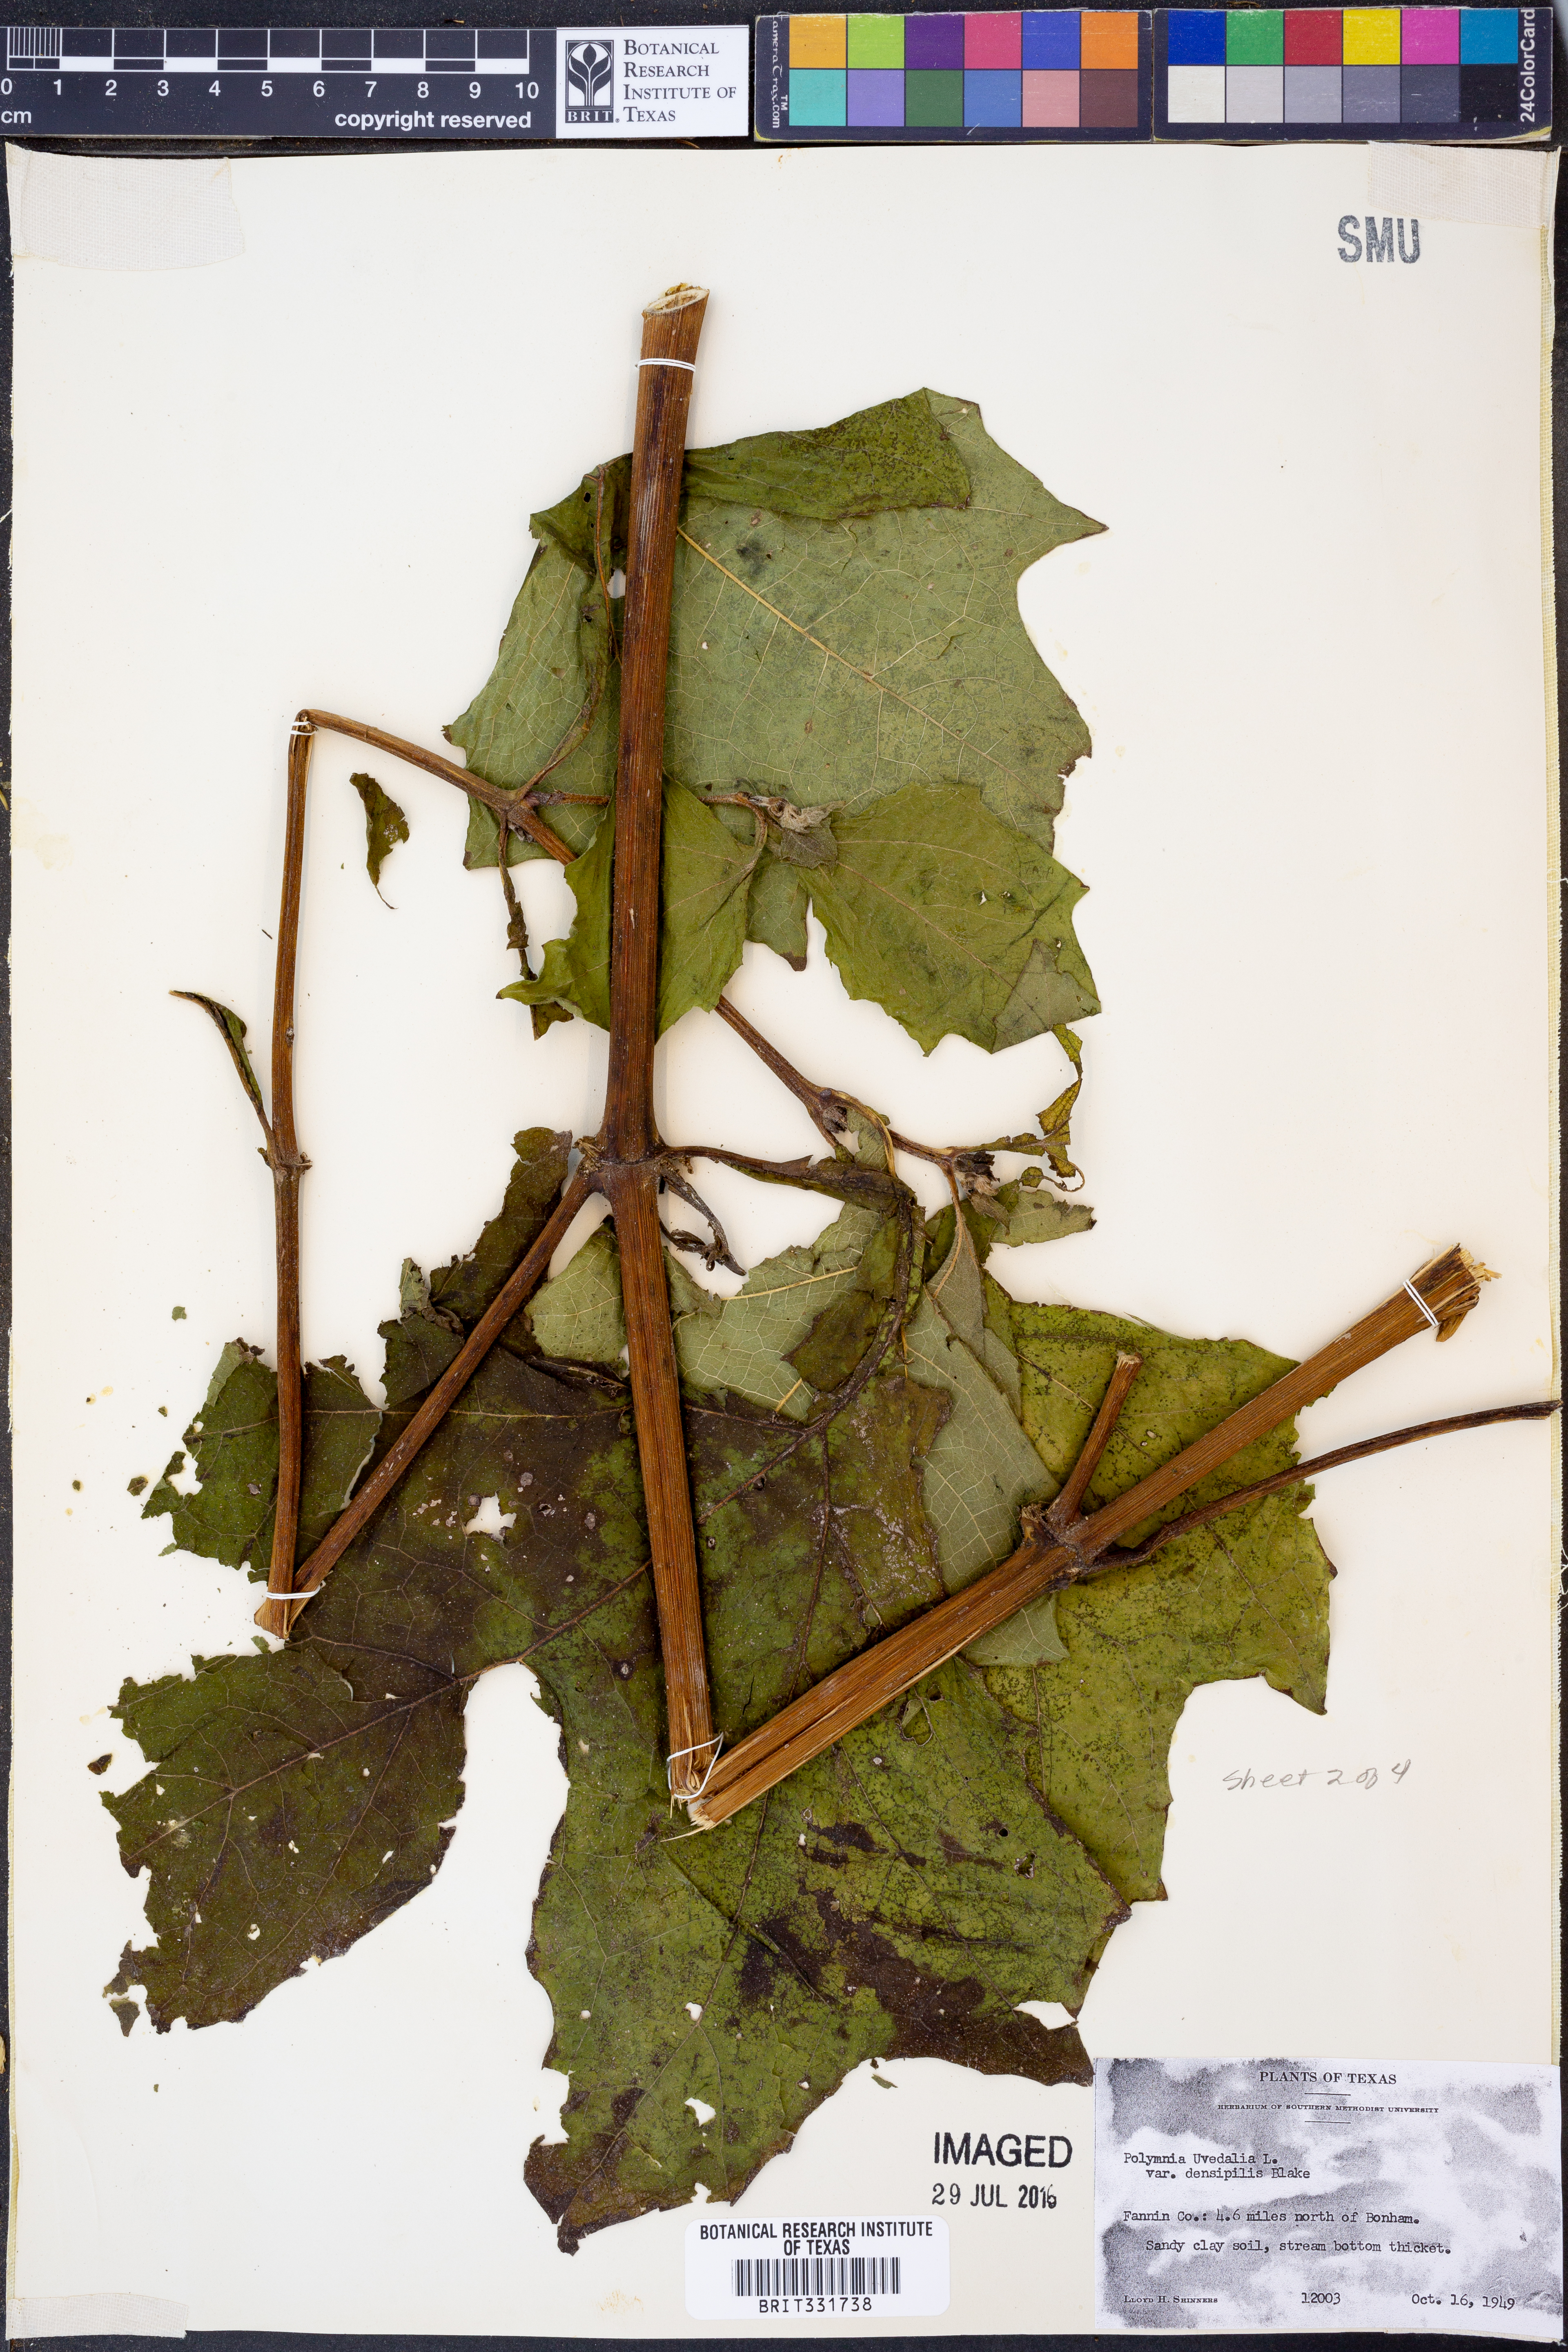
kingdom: Plantae
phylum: Tracheophyta
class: Magnoliopsida
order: Asterales
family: Asteraceae
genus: Smallanthus
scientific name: Smallanthus uvedalia
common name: Bear's-foot
